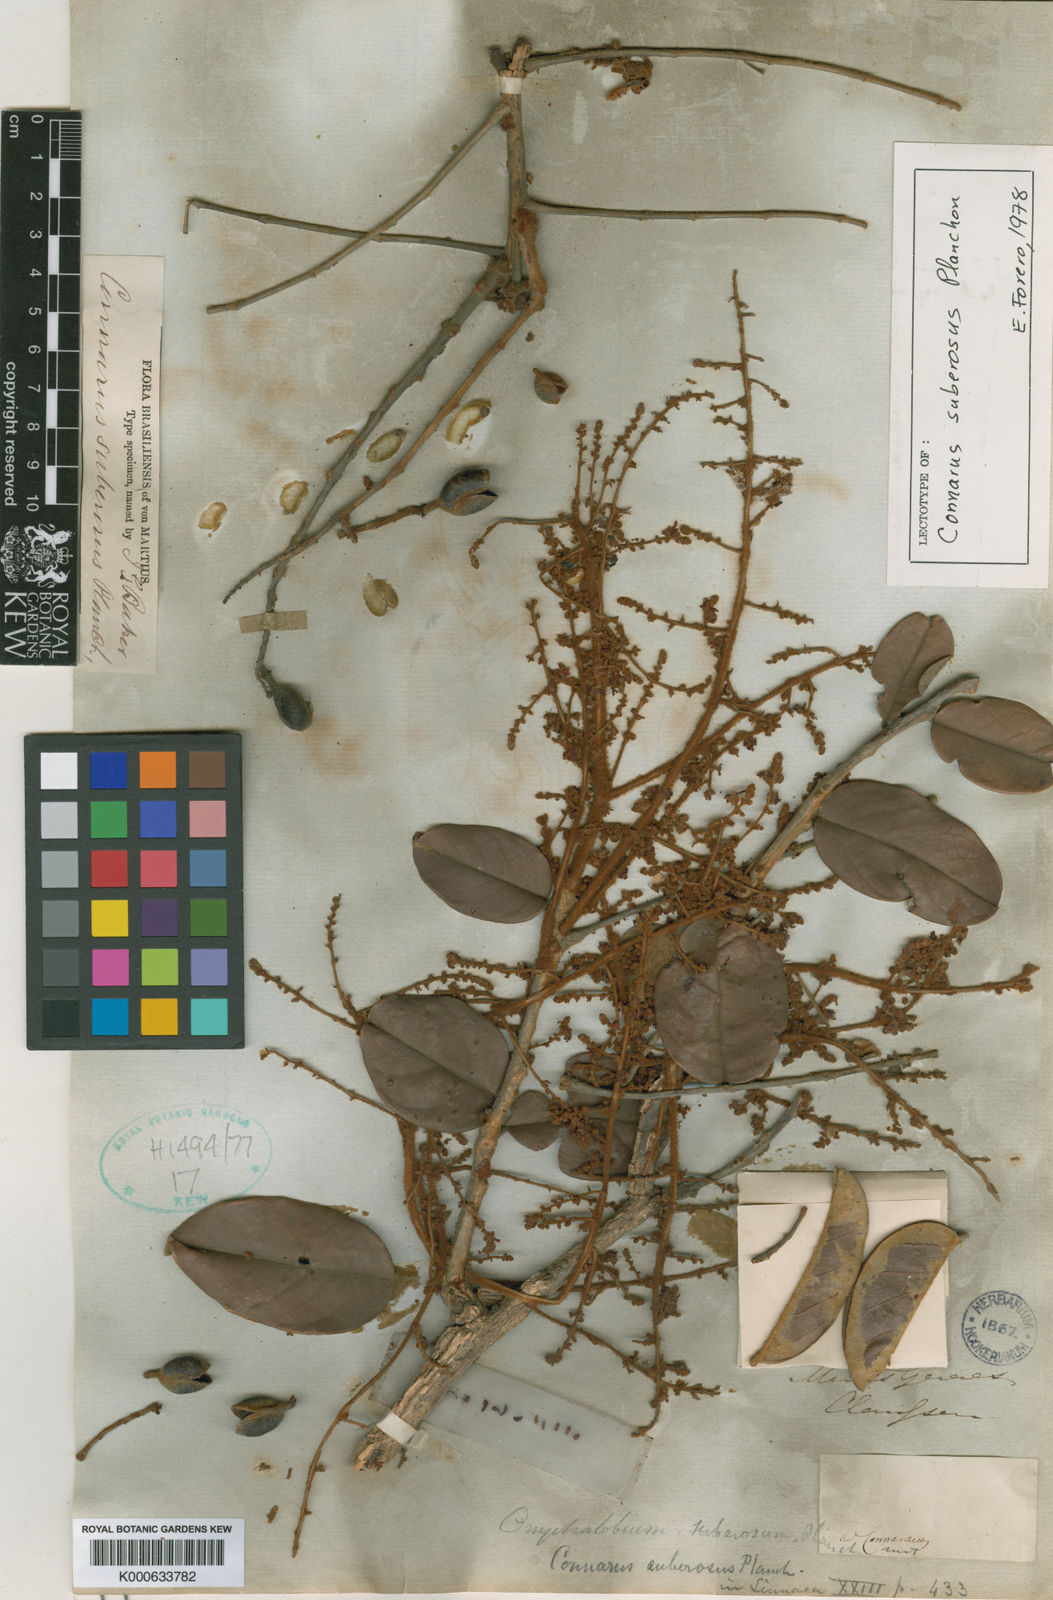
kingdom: Plantae
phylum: Tracheophyta
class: Magnoliopsida
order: Oxalidales
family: Connaraceae
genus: Connarus
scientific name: Connarus suberosus
